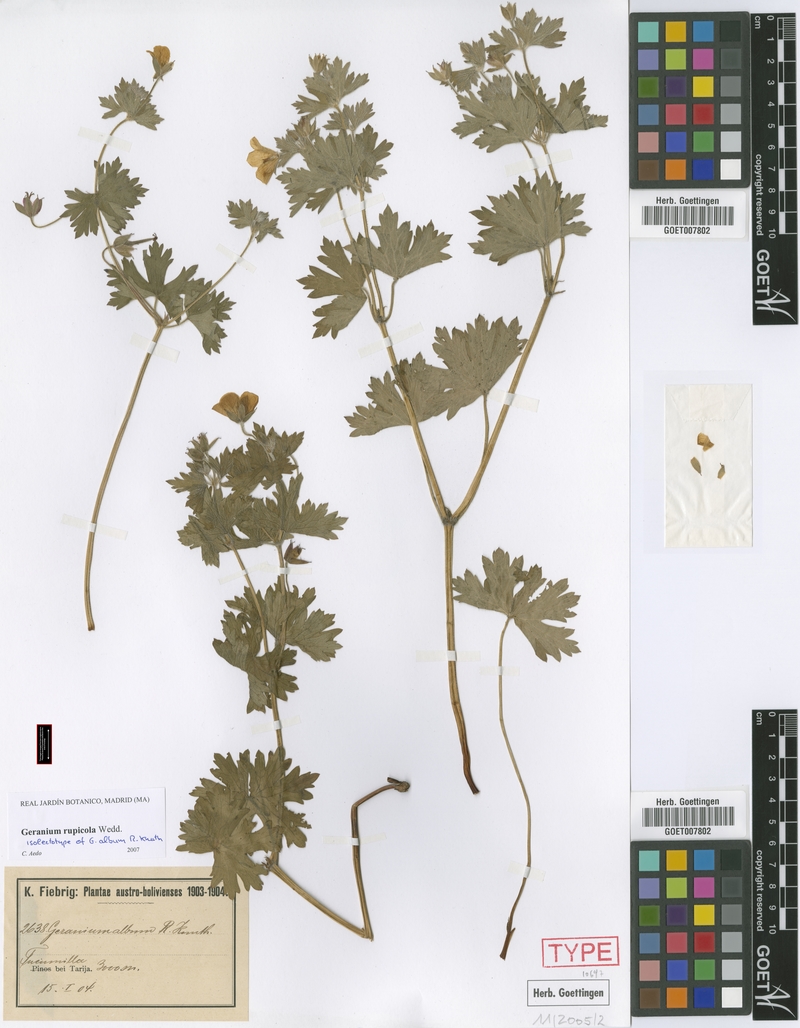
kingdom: Plantae
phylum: Tracheophyta
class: Magnoliopsida
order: Geraniales
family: Geraniaceae
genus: Geranium
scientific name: Geranium rupicola
